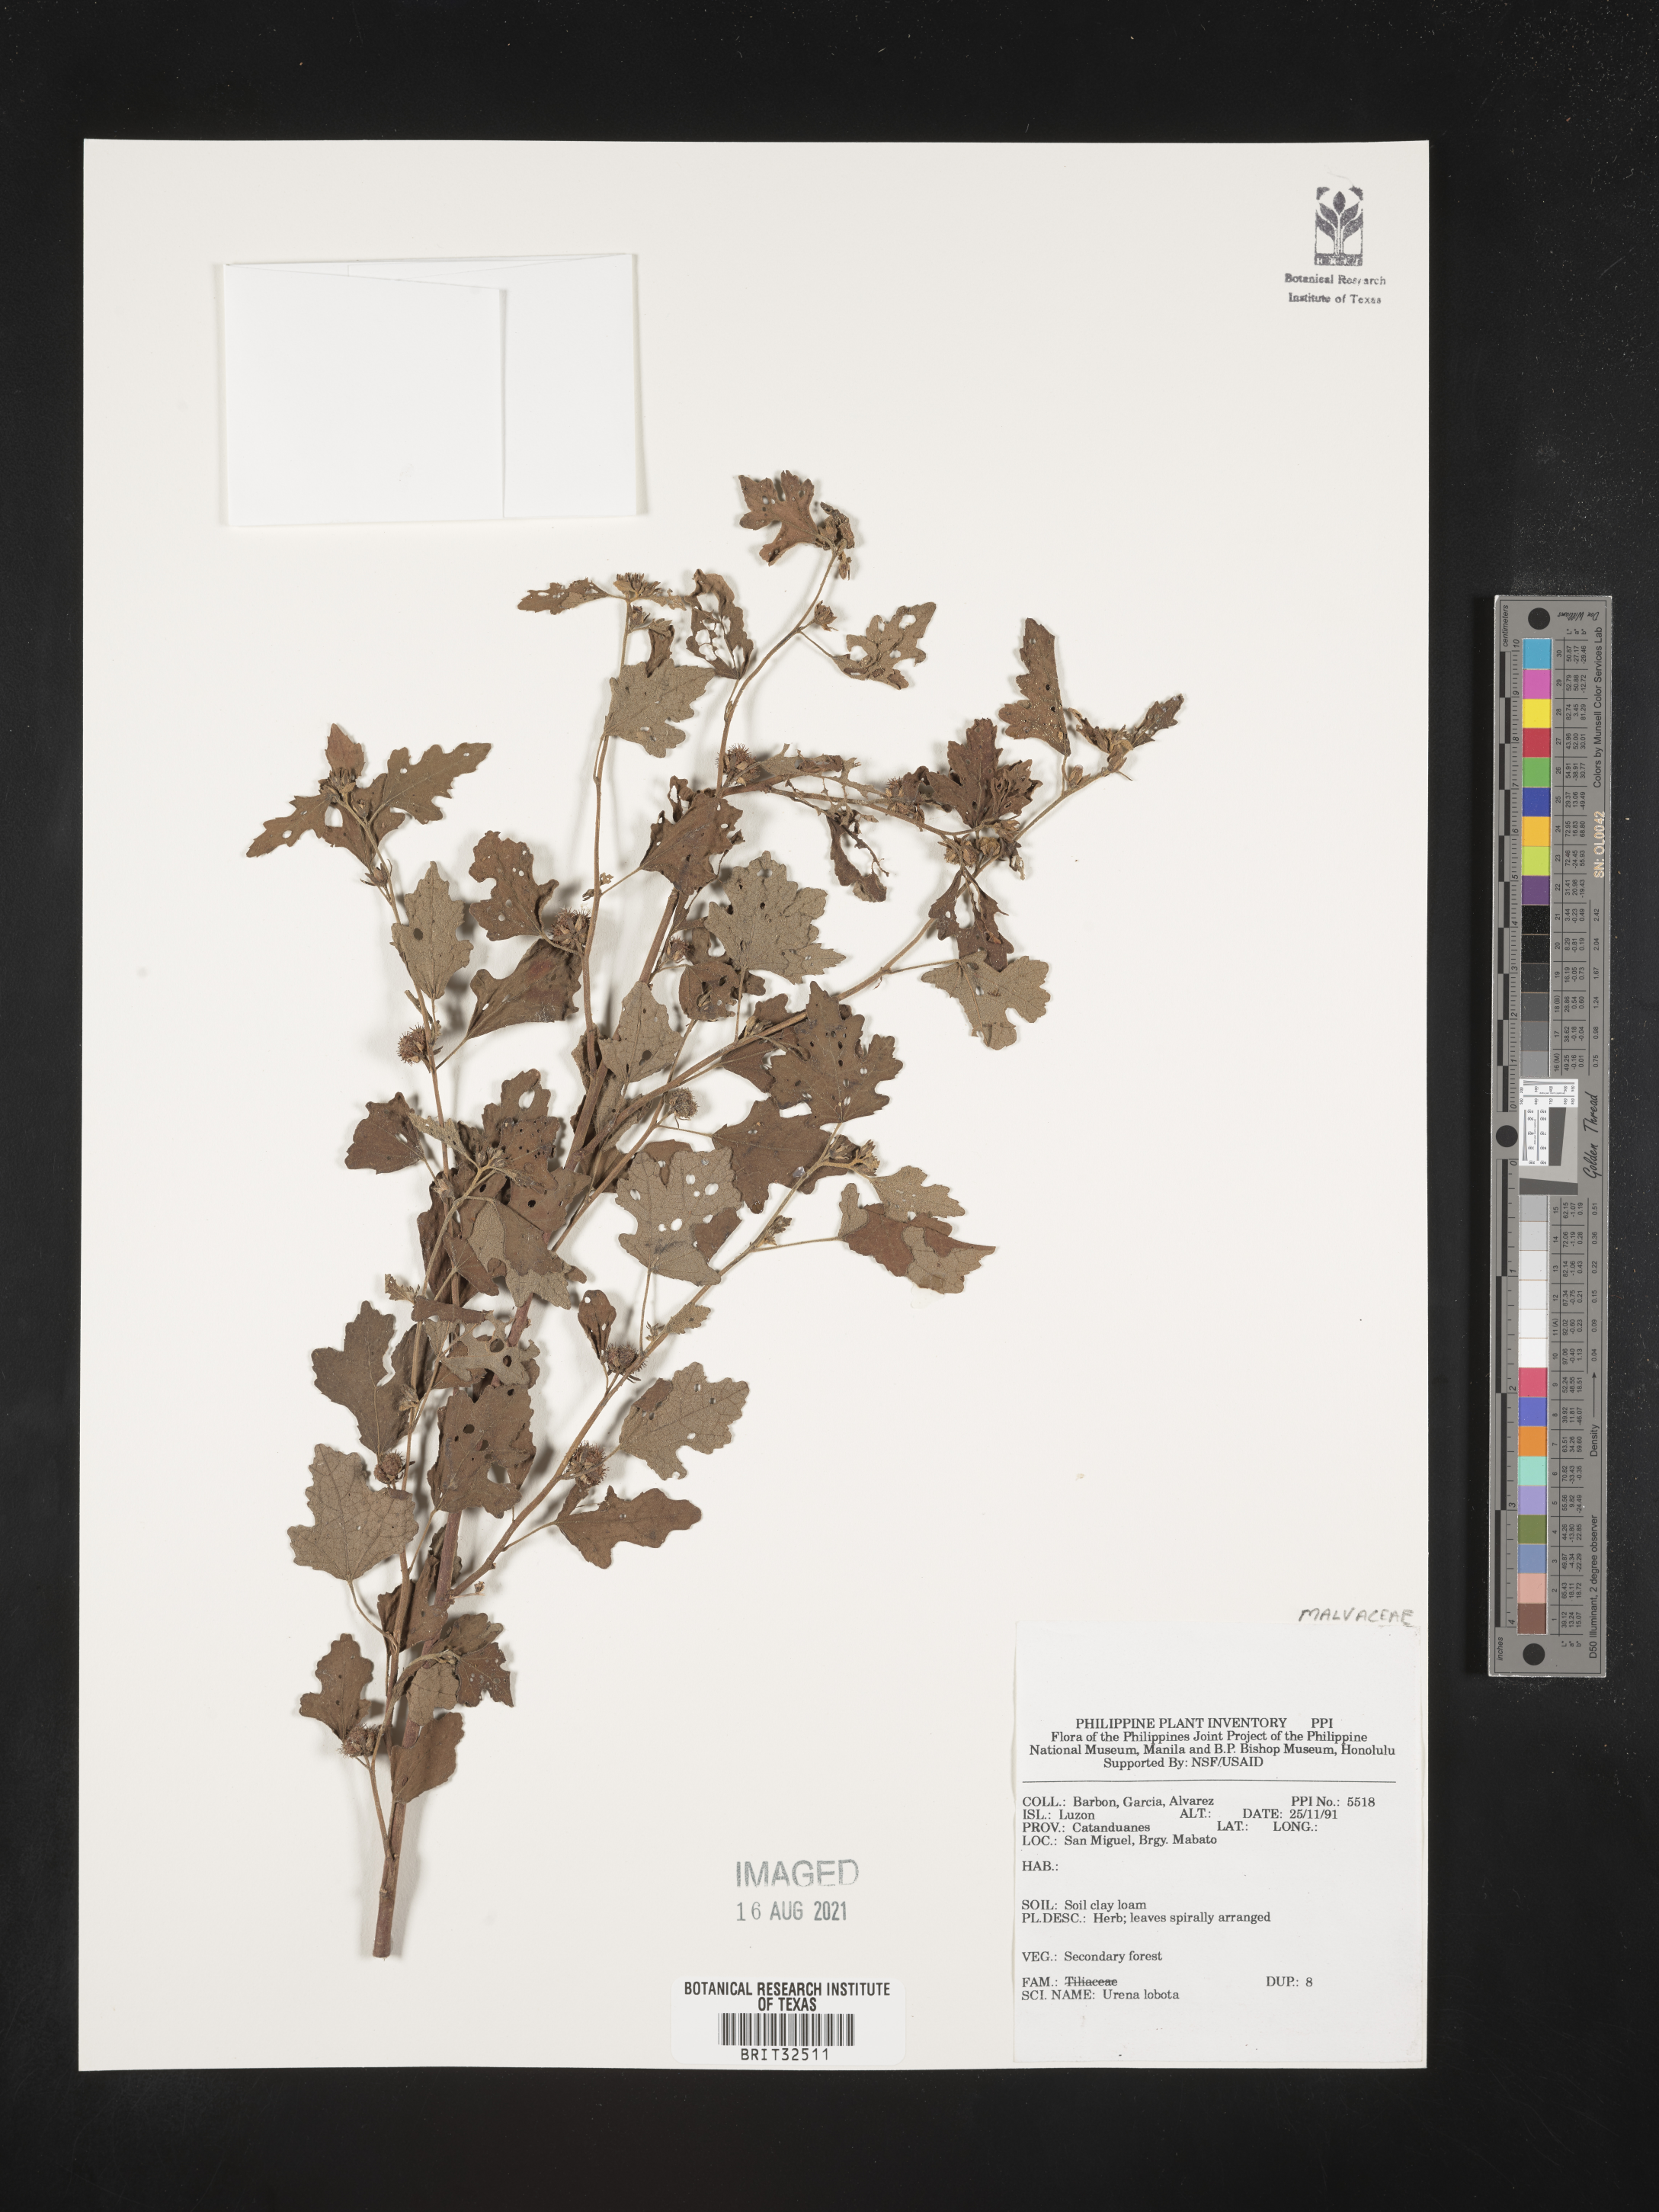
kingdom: Plantae
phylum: Tracheophyta
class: Magnoliopsida
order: Malvales
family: Malvaceae
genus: Urena
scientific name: Urena lobata
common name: Caesarweed
